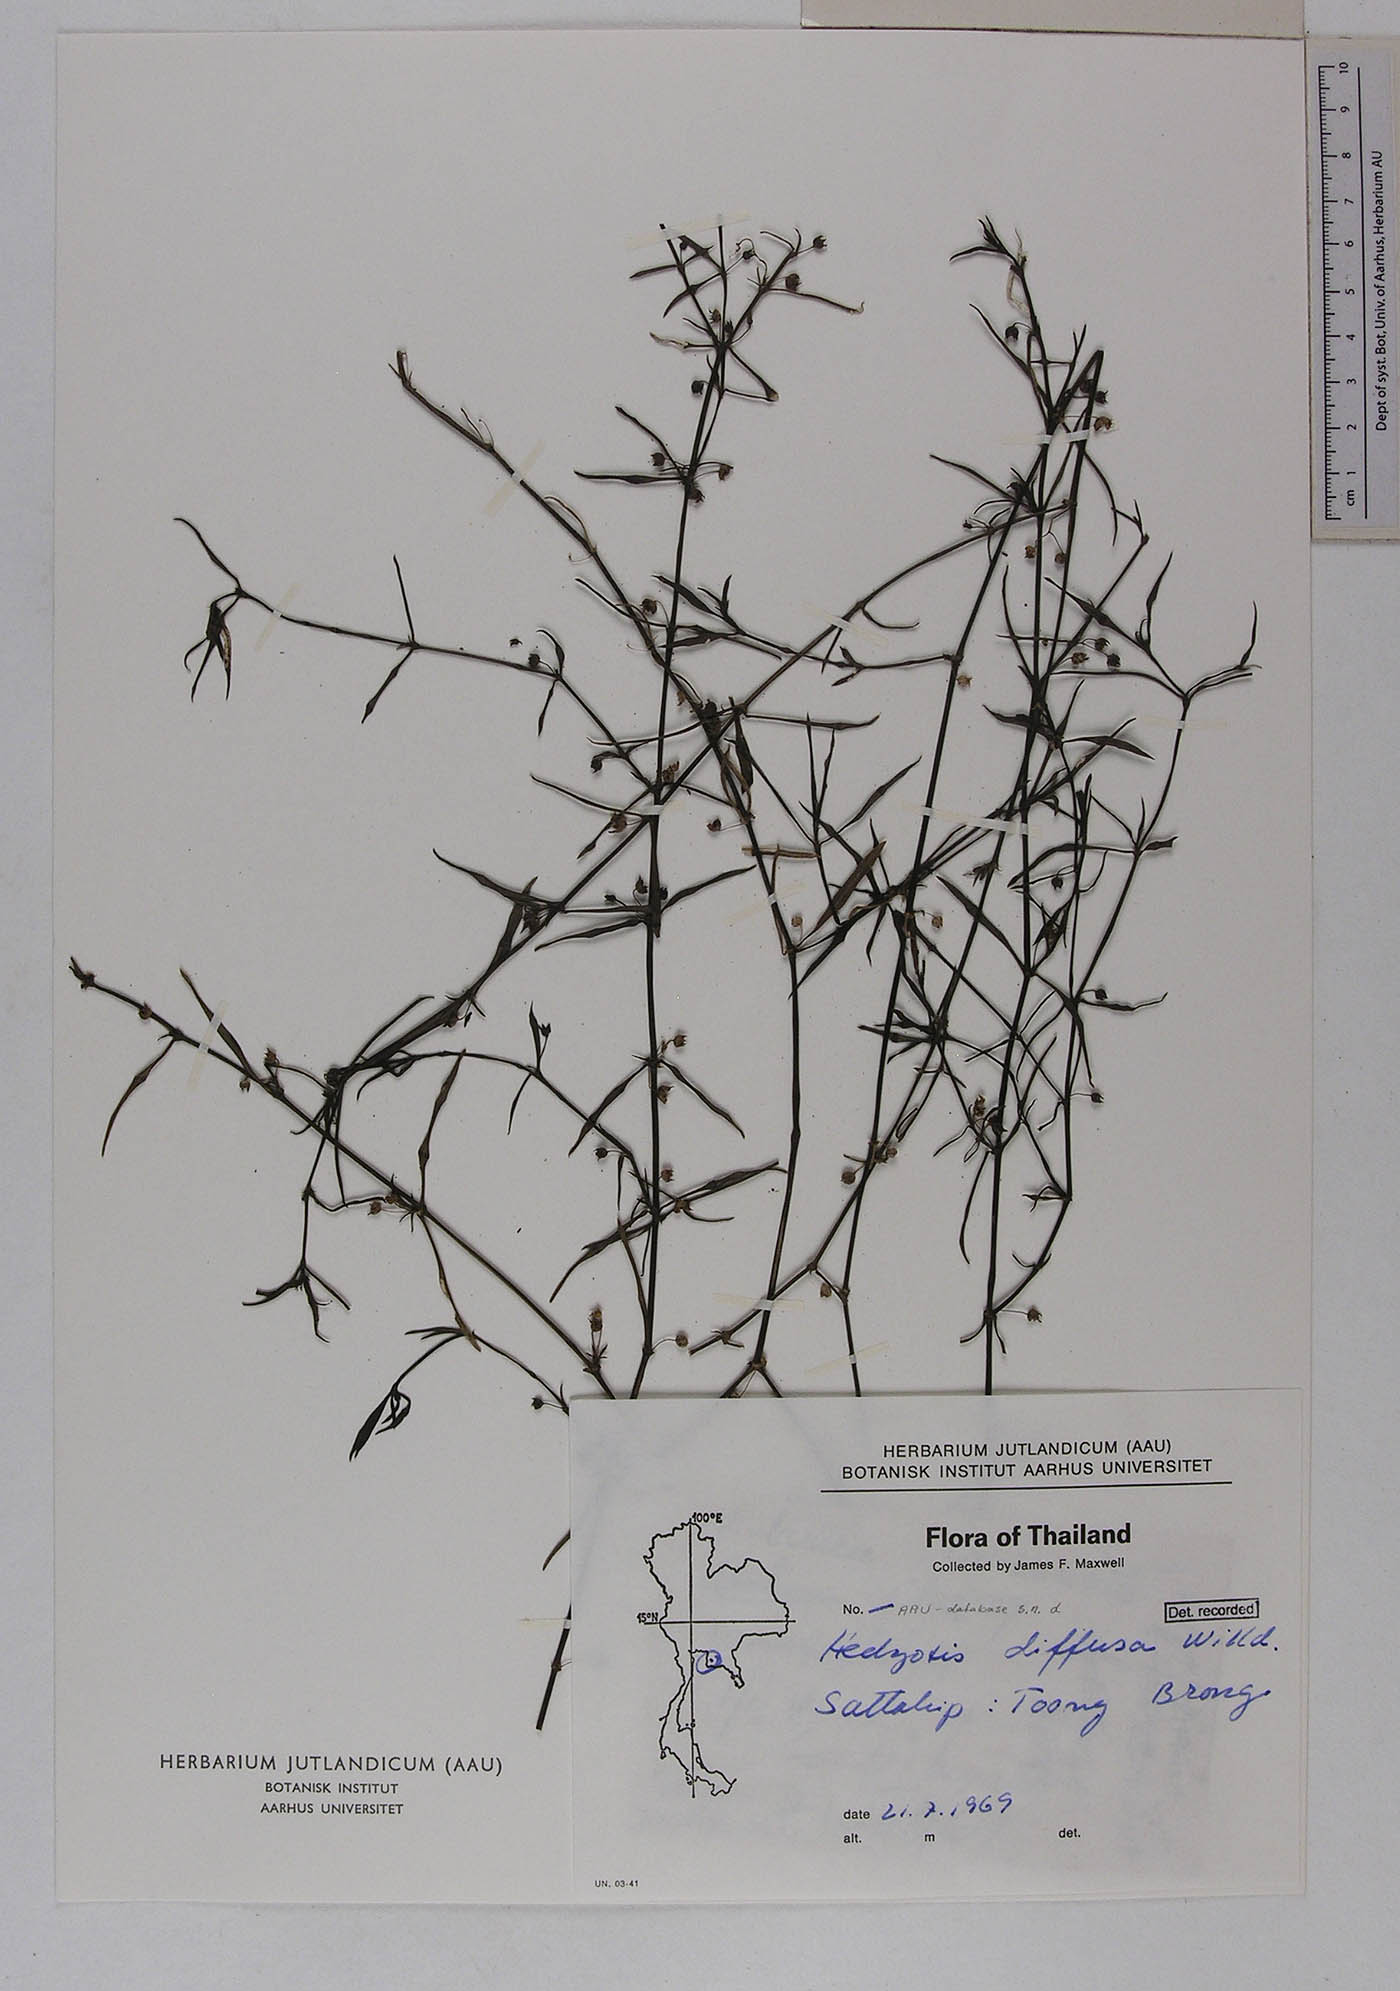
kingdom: Plantae
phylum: Tracheophyta
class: Magnoliopsida
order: Gentianales
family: Rubiaceae
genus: Scleromitrion
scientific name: Scleromitrion diffusum
